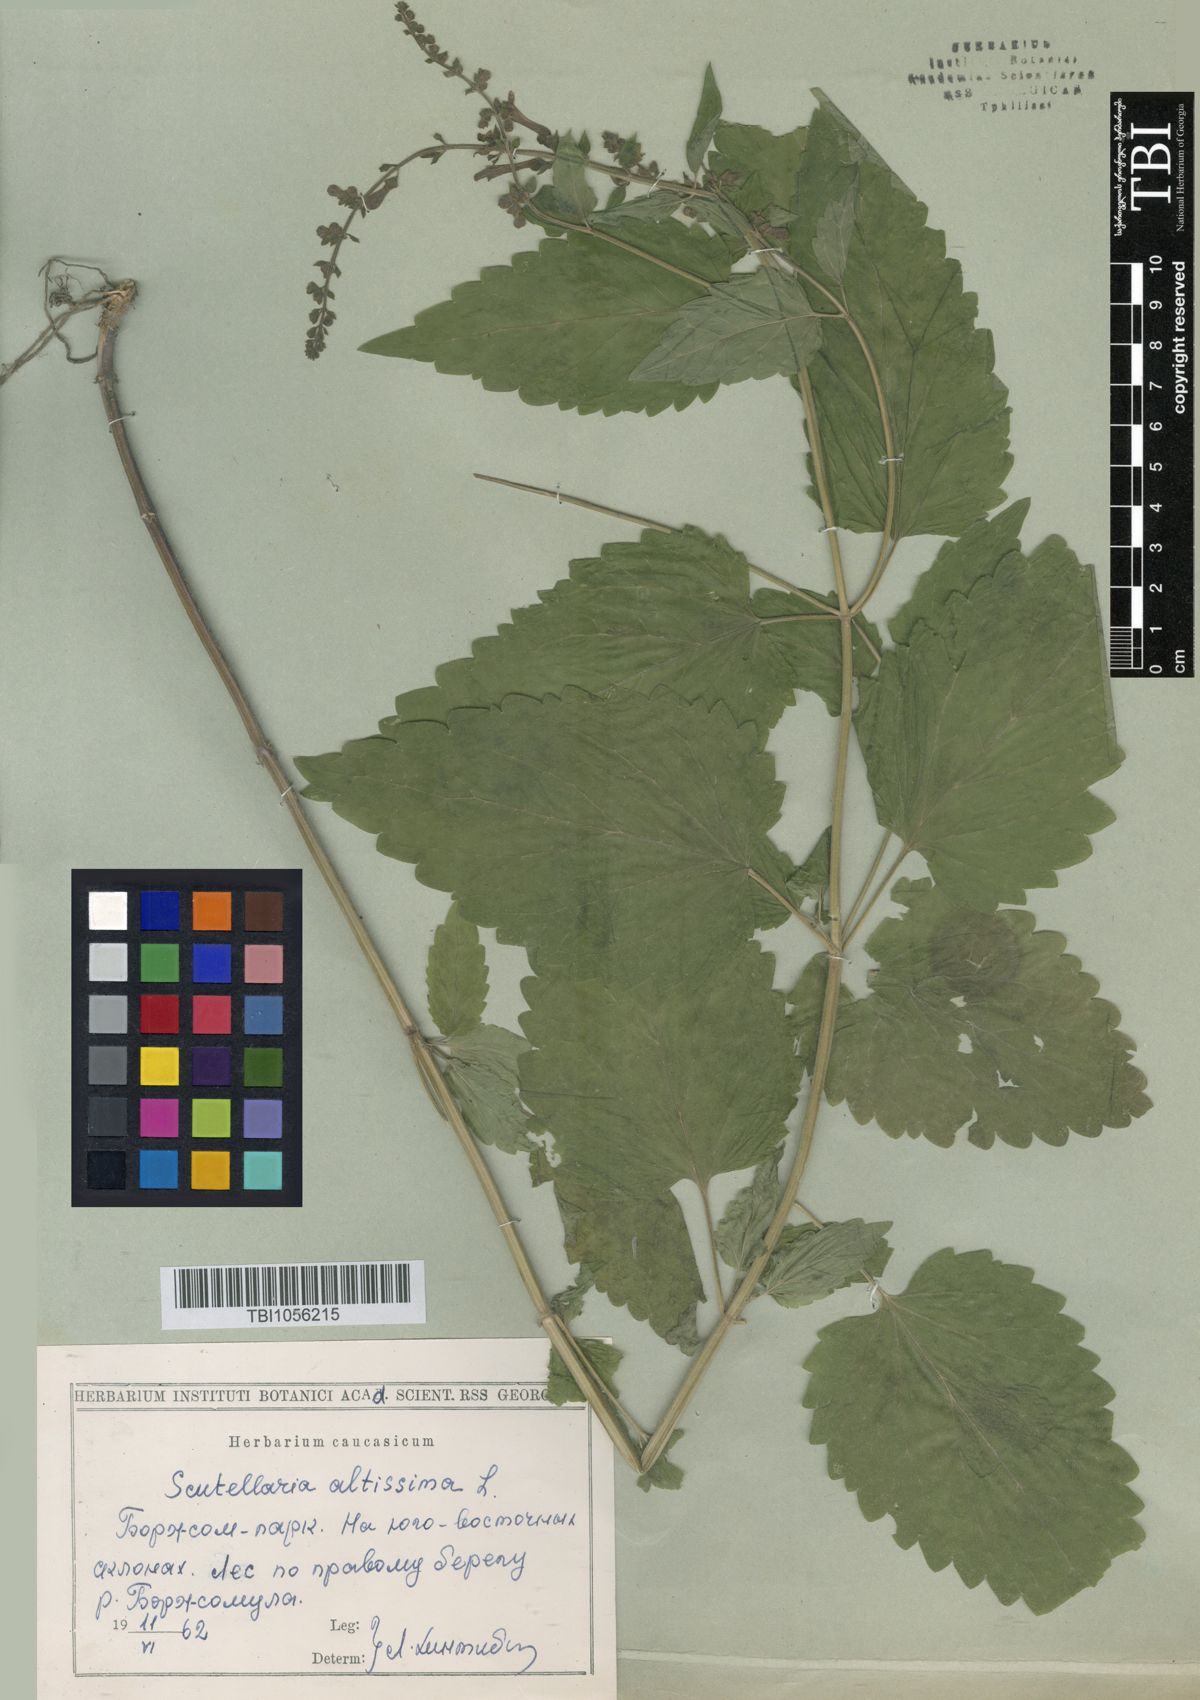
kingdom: Plantae
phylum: Tracheophyta
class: Magnoliopsida
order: Lamiales
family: Lamiaceae
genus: Scutellaria
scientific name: Scutellaria altissima
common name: Somerset skullcap
